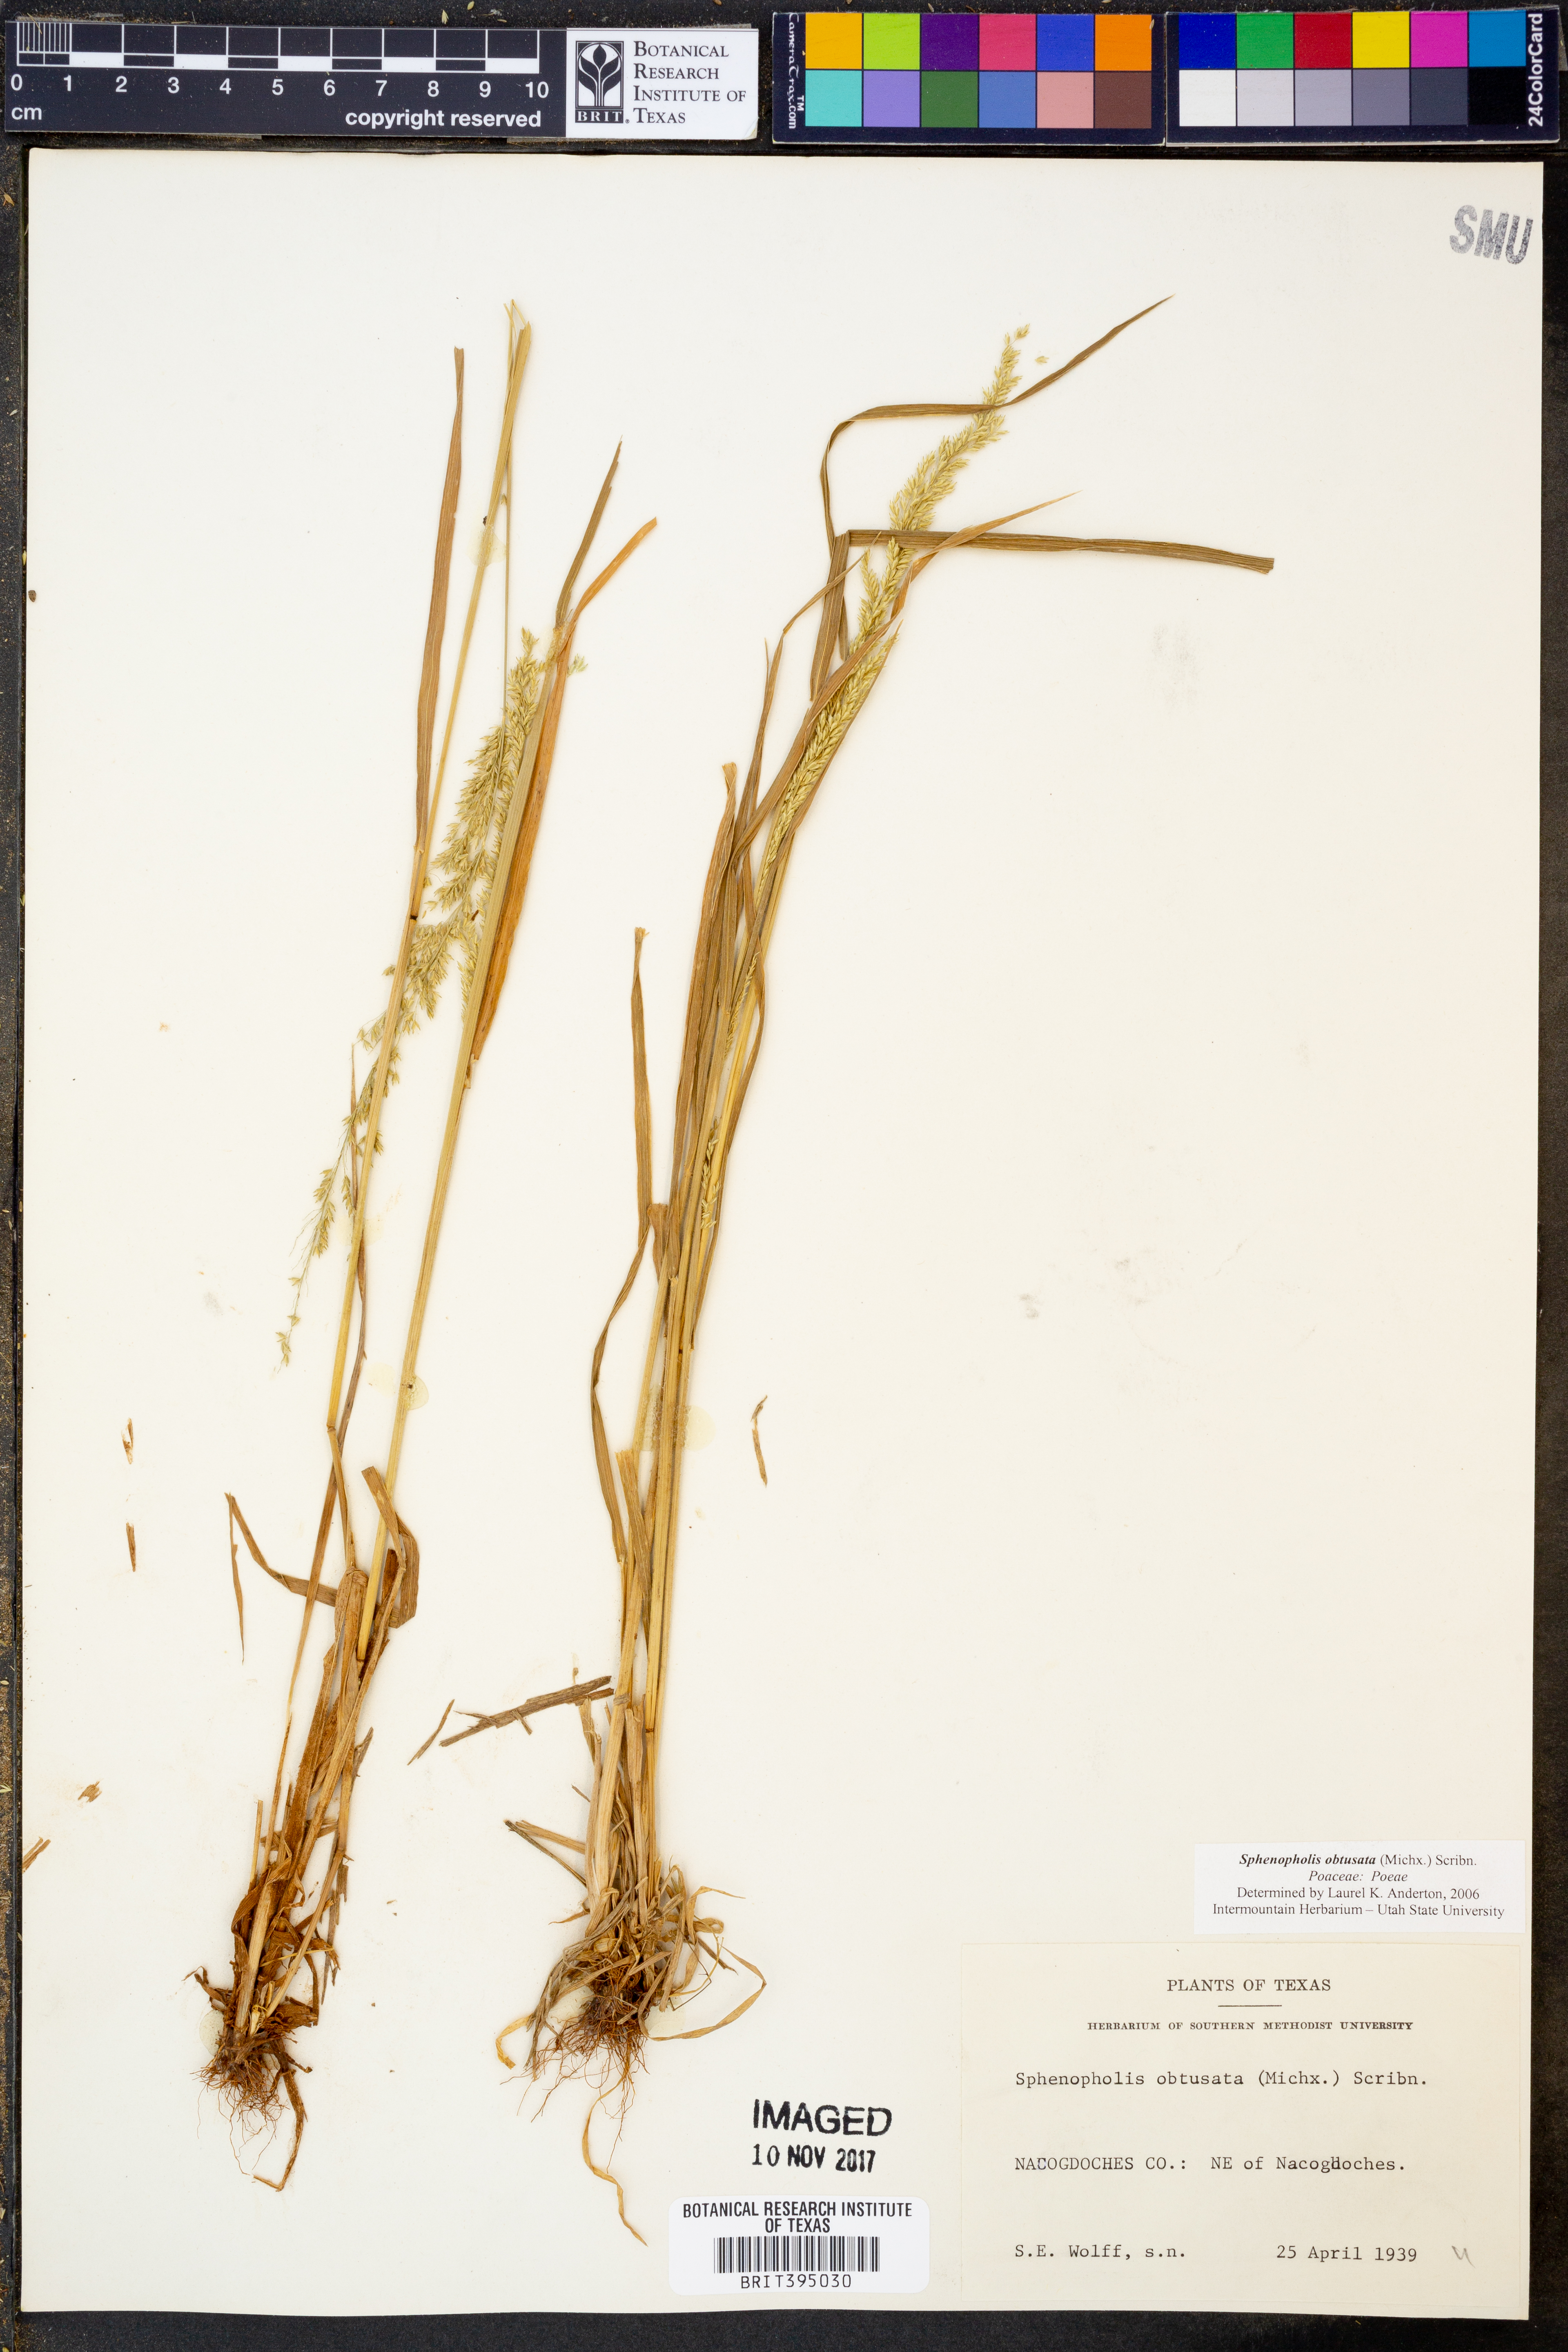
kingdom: Plantae
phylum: Tracheophyta
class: Liliopsida
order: Poales
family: Poaceae
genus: Sphenopholis
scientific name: Sphenopholis obtusata
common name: Prairie grass
